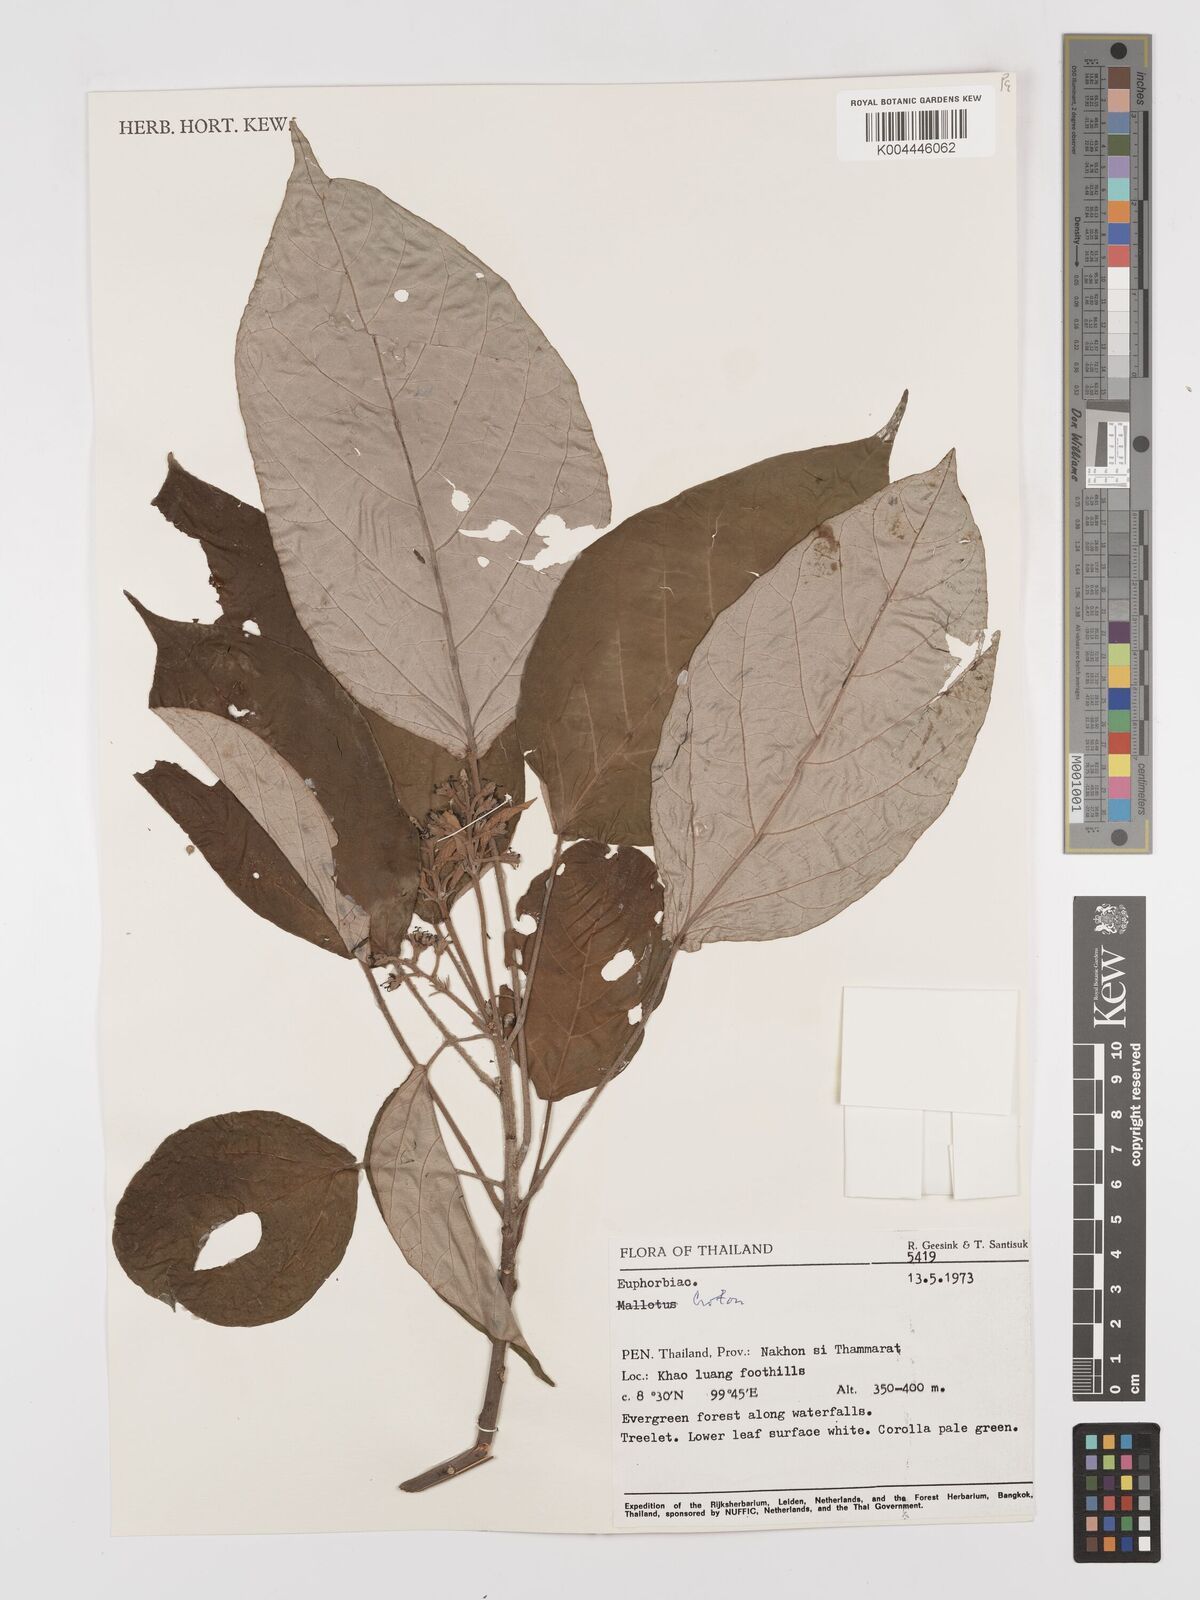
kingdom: Plantae
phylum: Tracheophyta
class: Magnoliopsida
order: Malpighiales
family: Euphorbiaceae
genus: Croton
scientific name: Croton argyratus
